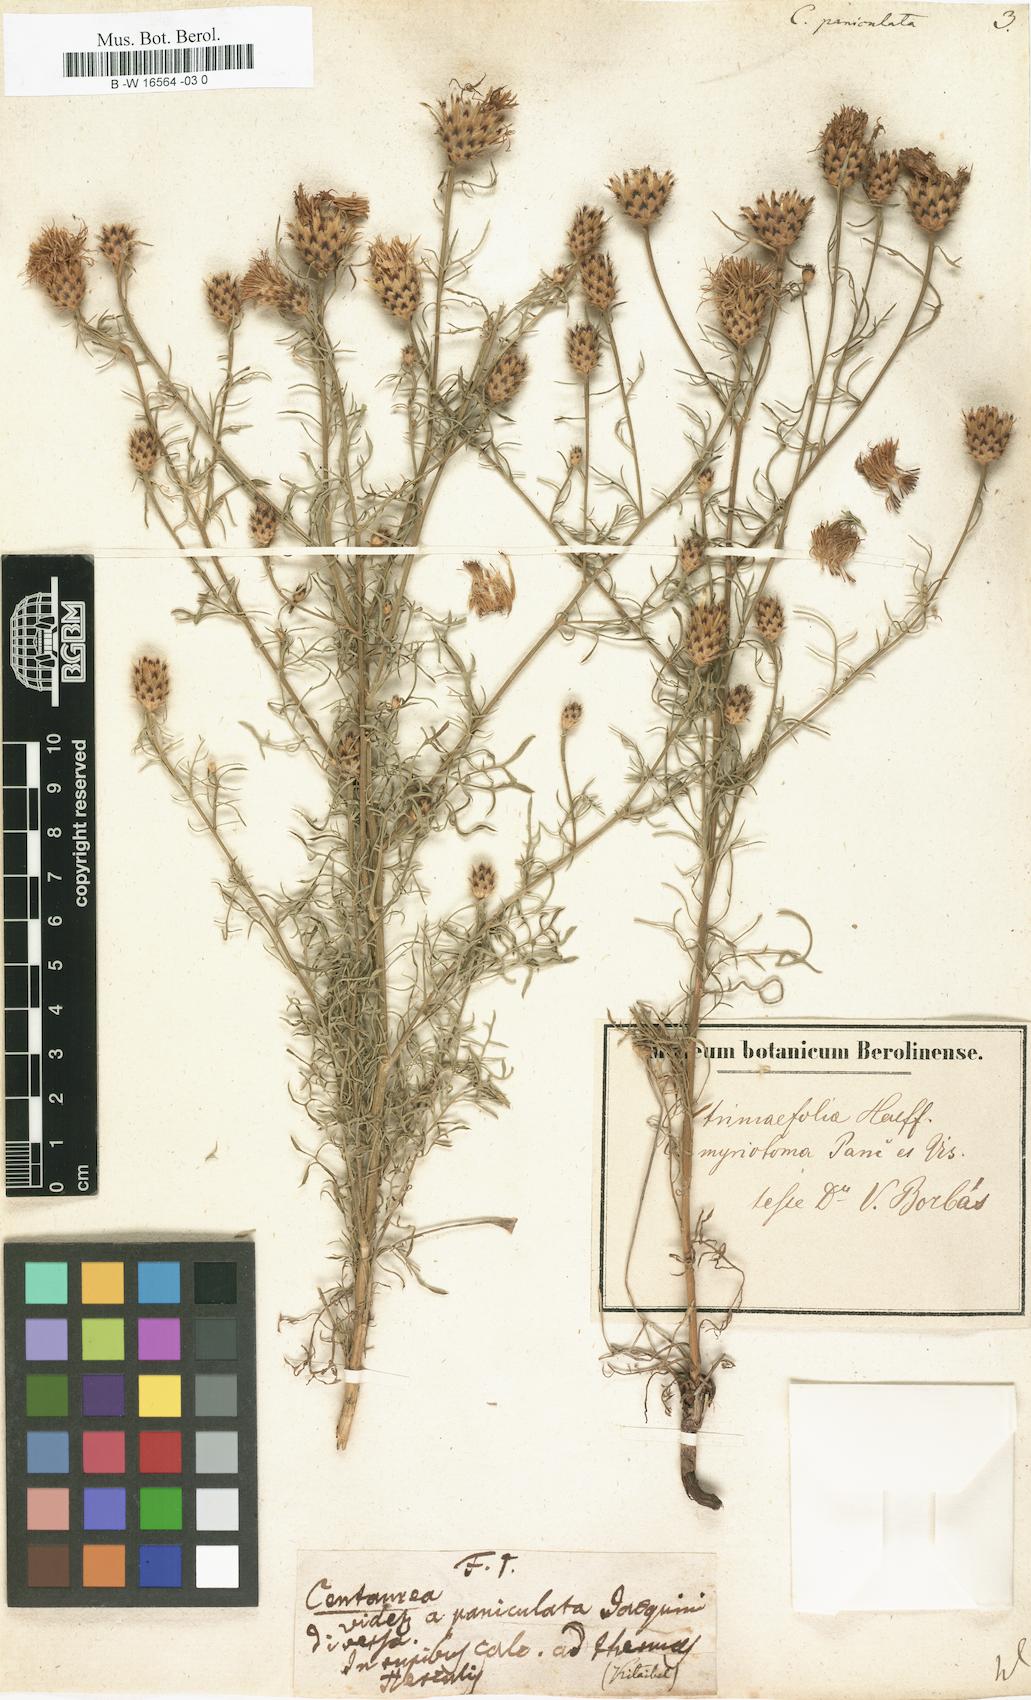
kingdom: Plantae
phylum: Tracheophyta
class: Magnoliopsida
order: Asterales
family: Asteraceae
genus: Centaurea
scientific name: Centaurea paniculata
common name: Jersey knapweed
